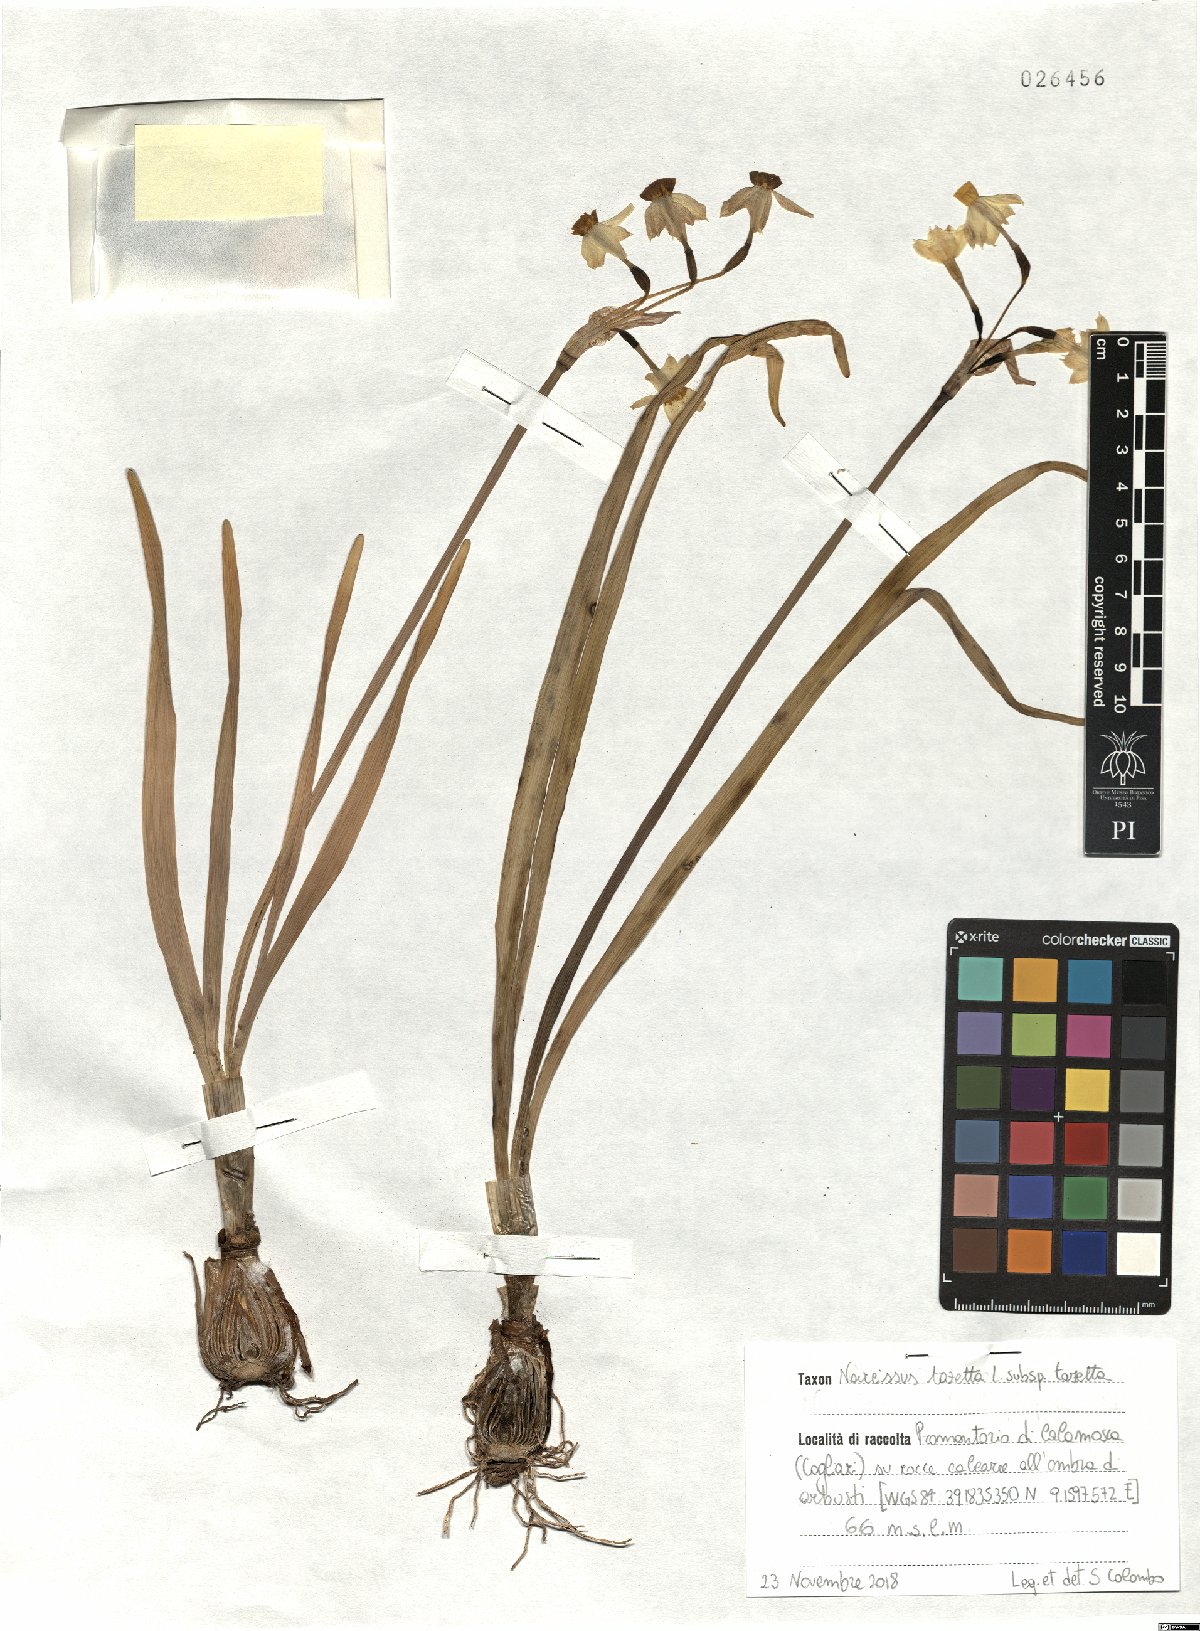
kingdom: Plantae
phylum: Tracheophyta
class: Liliopsida
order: Asparagales
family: Amaryllidaceae
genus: Narcissus
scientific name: Narcissus tazetta
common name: Bunch-flowered daffodil
